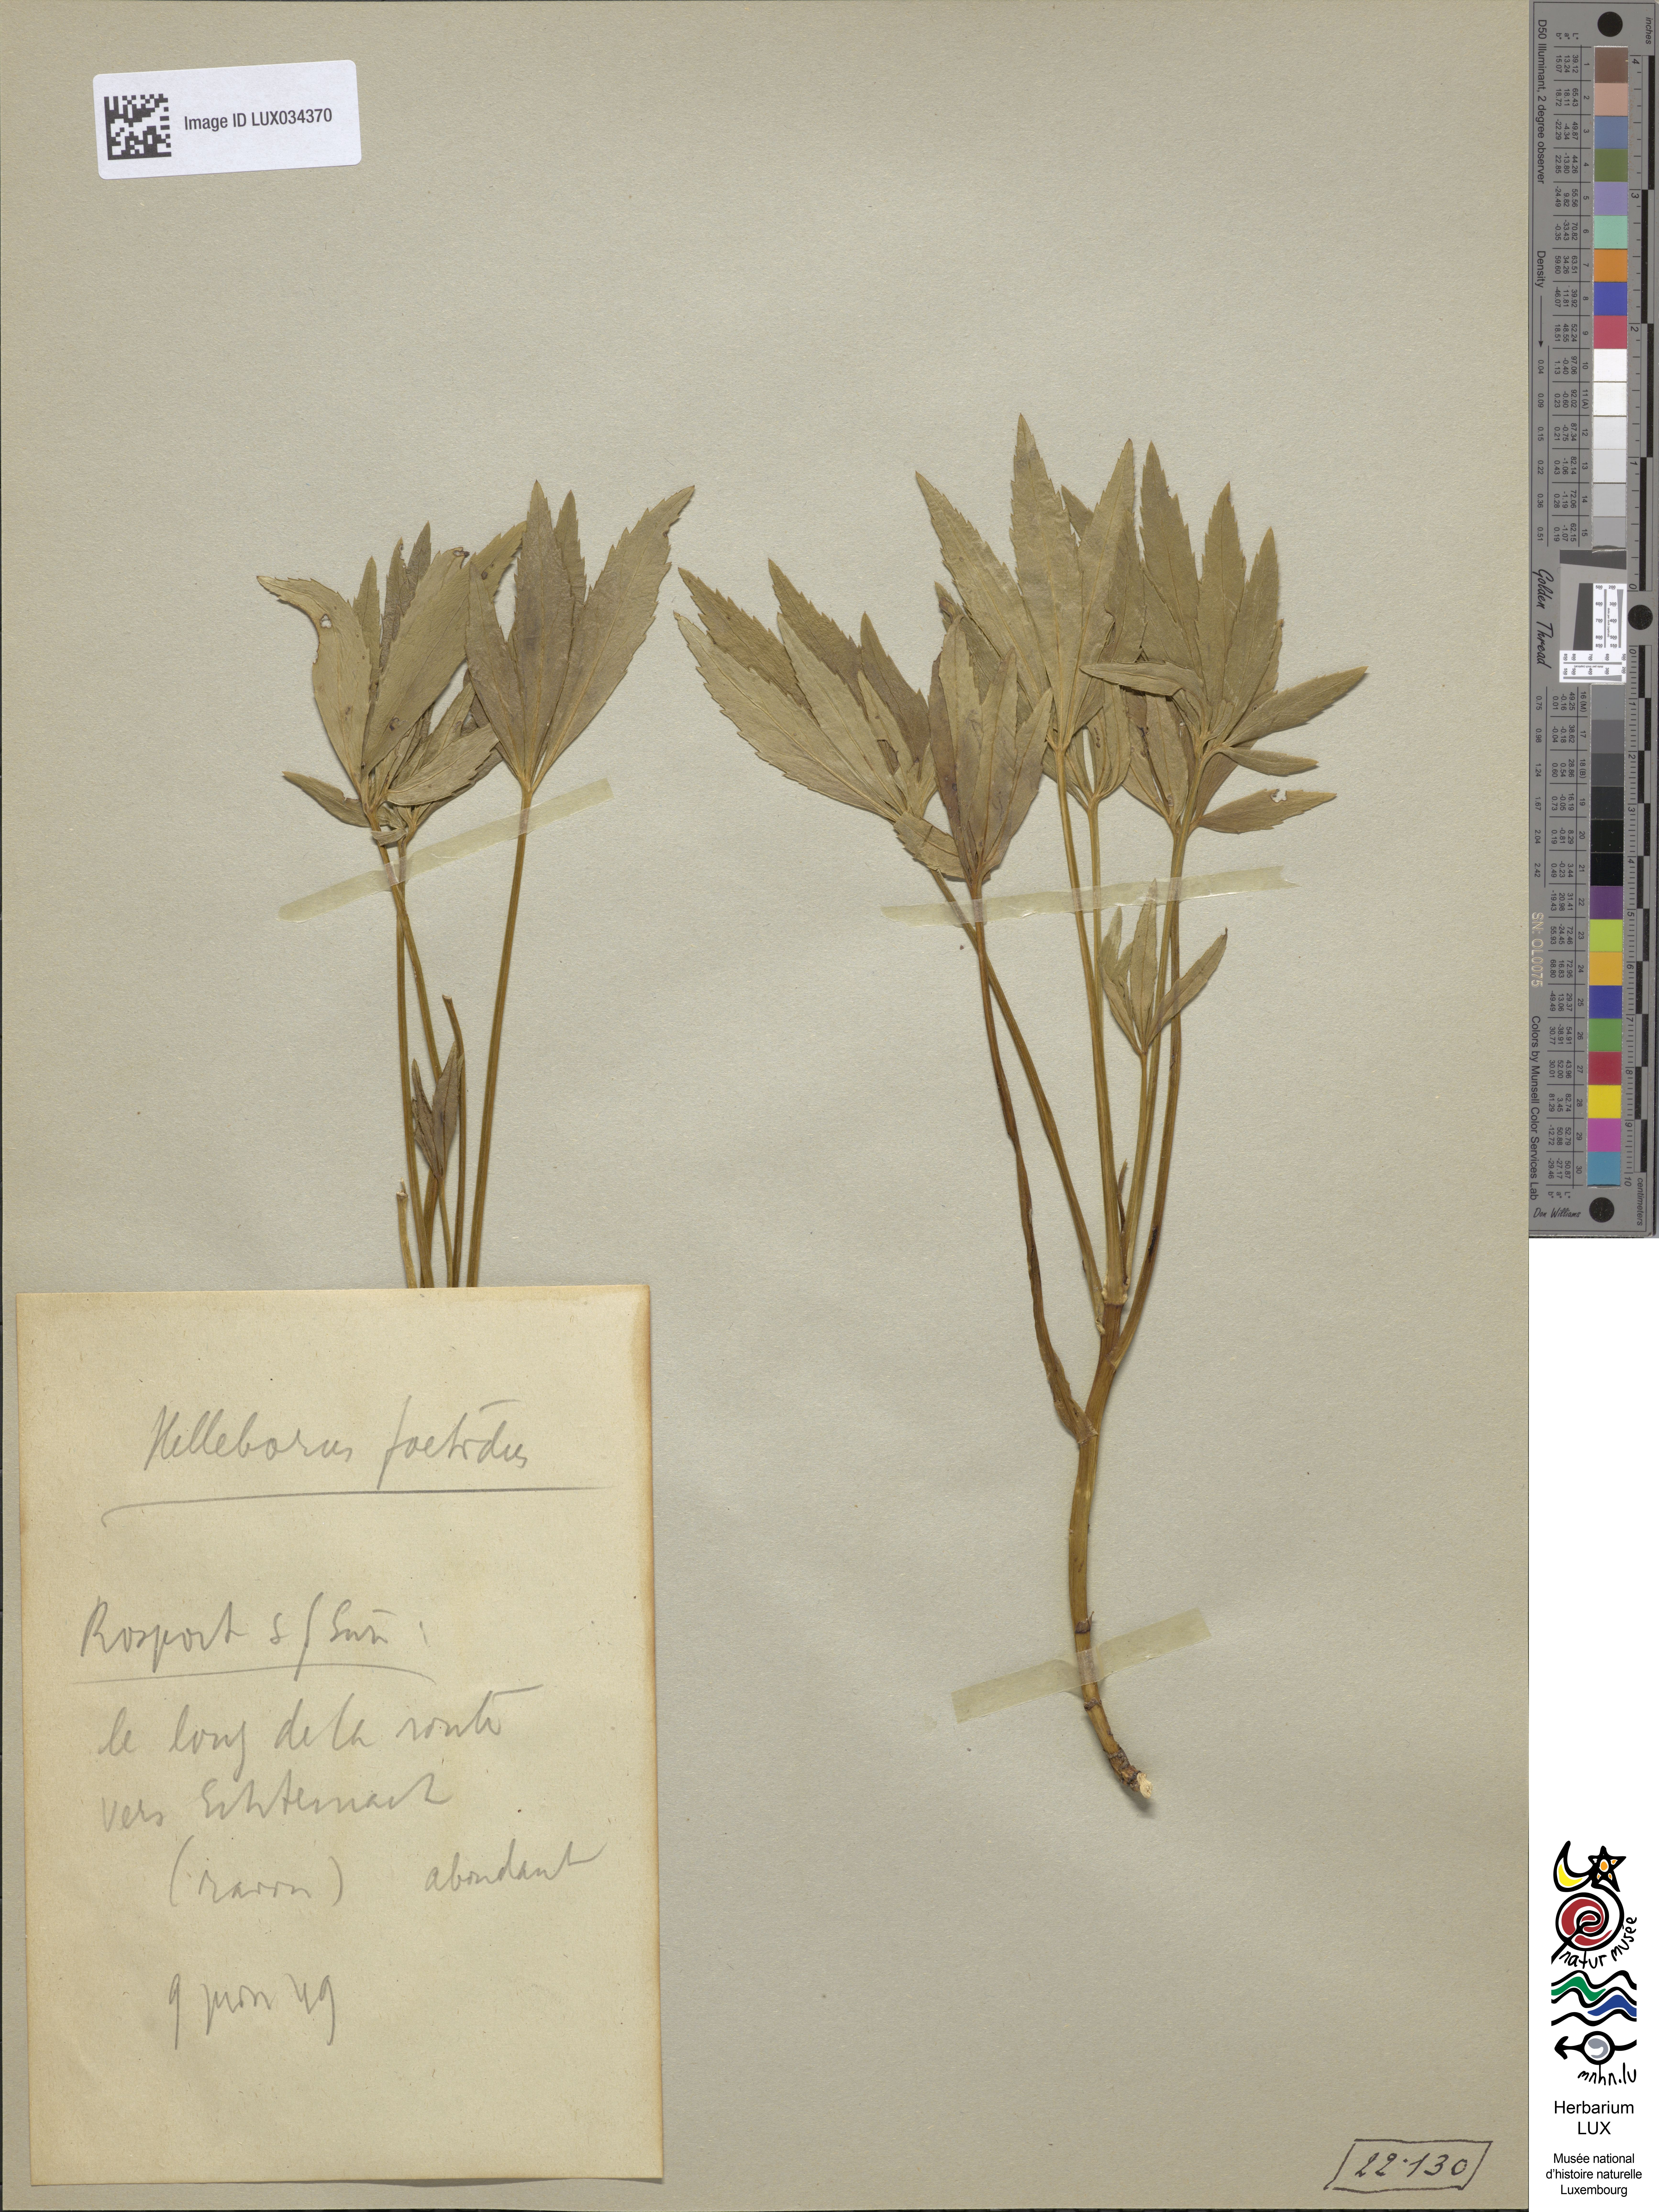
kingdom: Plantae
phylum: Tracheophyta
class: Magnoliopsida
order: Ranunculales
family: Ranunculaceae
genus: Helleborus
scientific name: Helleborus foetidus
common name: Stinking hellebore
